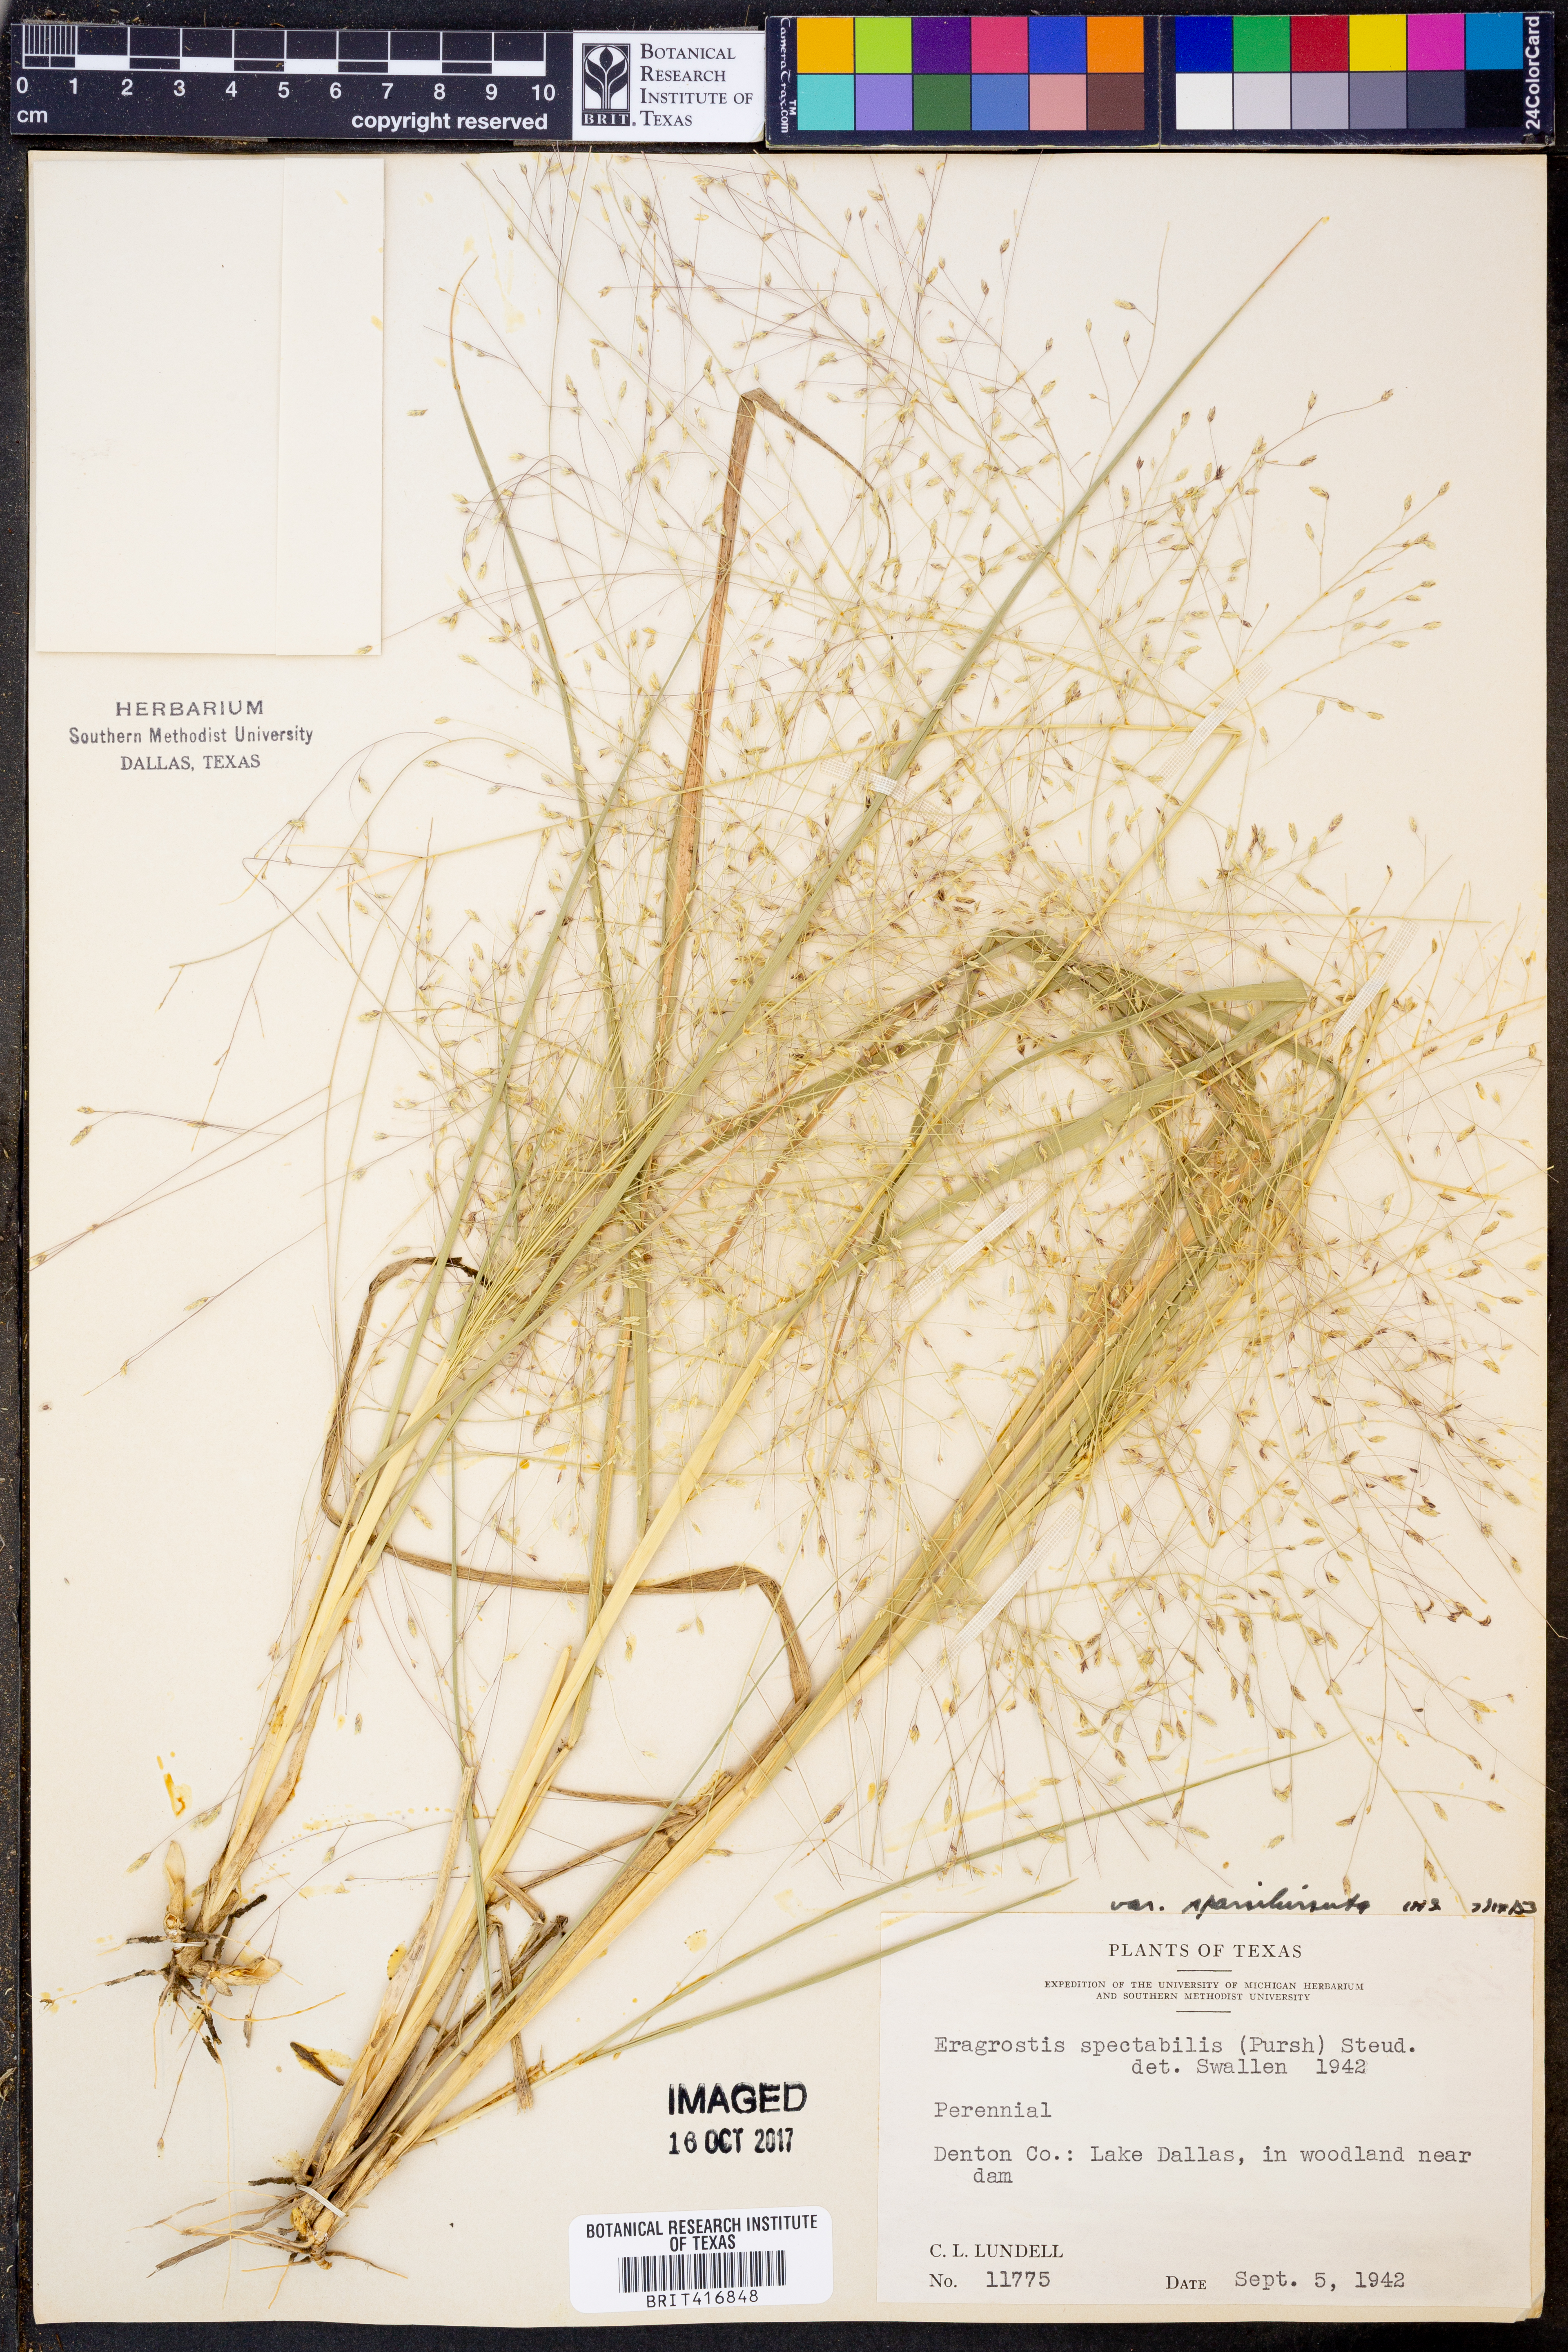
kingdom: Plantae
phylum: Tracheophyta
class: Liliopsida
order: Poales
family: Poaceae
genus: Eragrostis
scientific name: Eragrostis spectabilis
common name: Petticoat-climber
